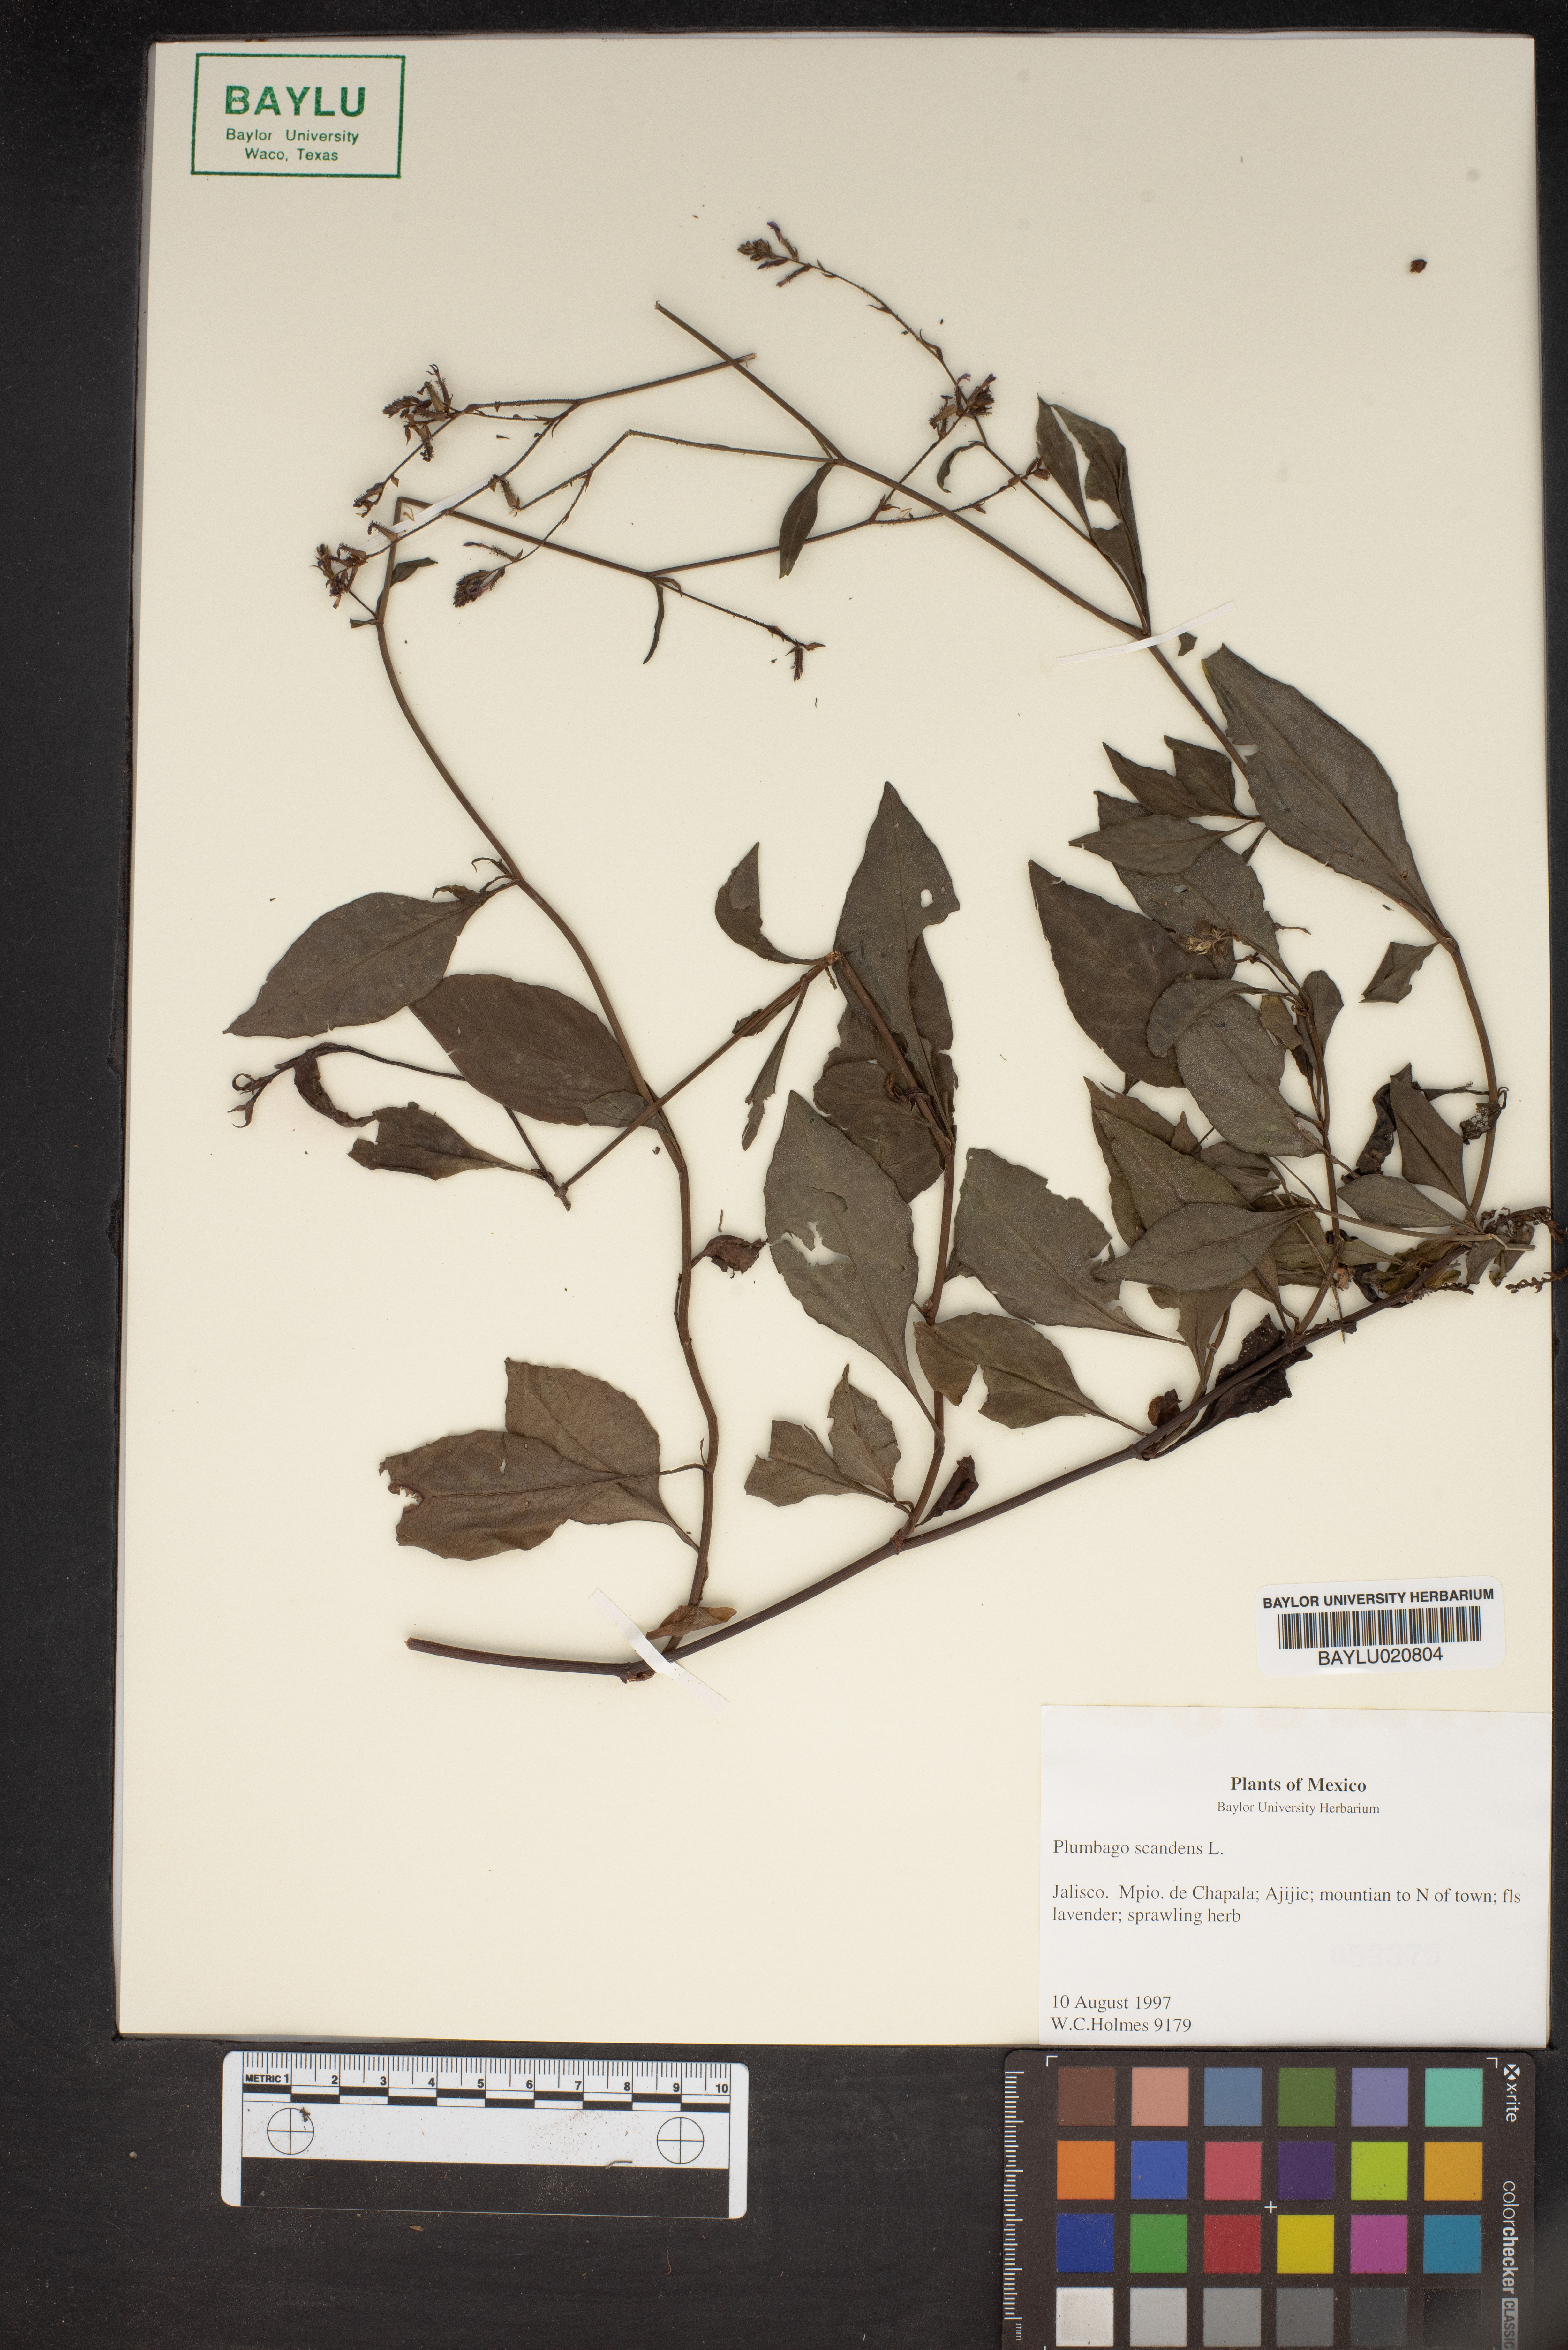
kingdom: Plantae
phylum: Tracheophyta
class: Magnoliopsida
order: Caryophyllales
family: Plumbaginaceae
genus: Plumbago
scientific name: Plumbago zeylanica
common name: Doctorbush
